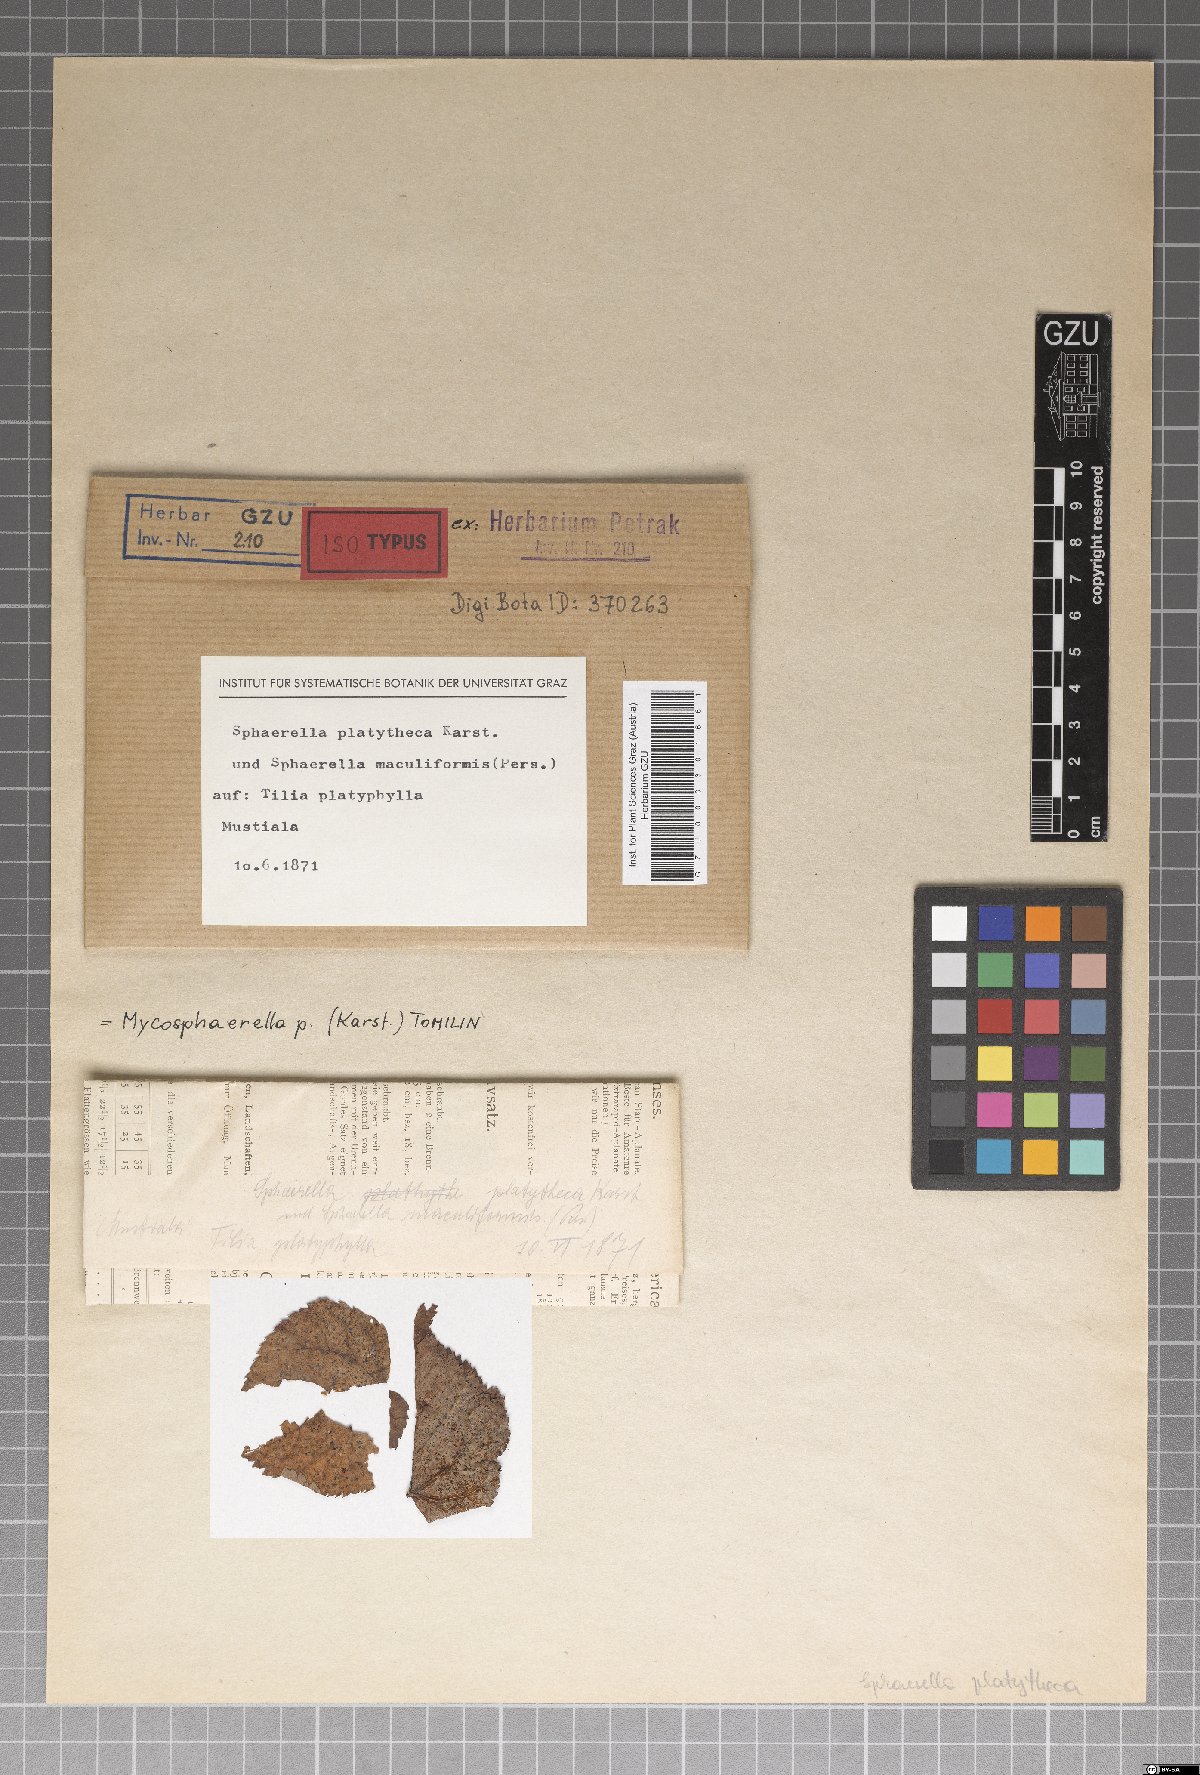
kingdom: Fungi
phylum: Ascomycota
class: Dothideomycetes
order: Mycosphaerellales
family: Mycosphaerellaceae
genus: Mycosphaerella
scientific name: Mycosphaerella platytheca
